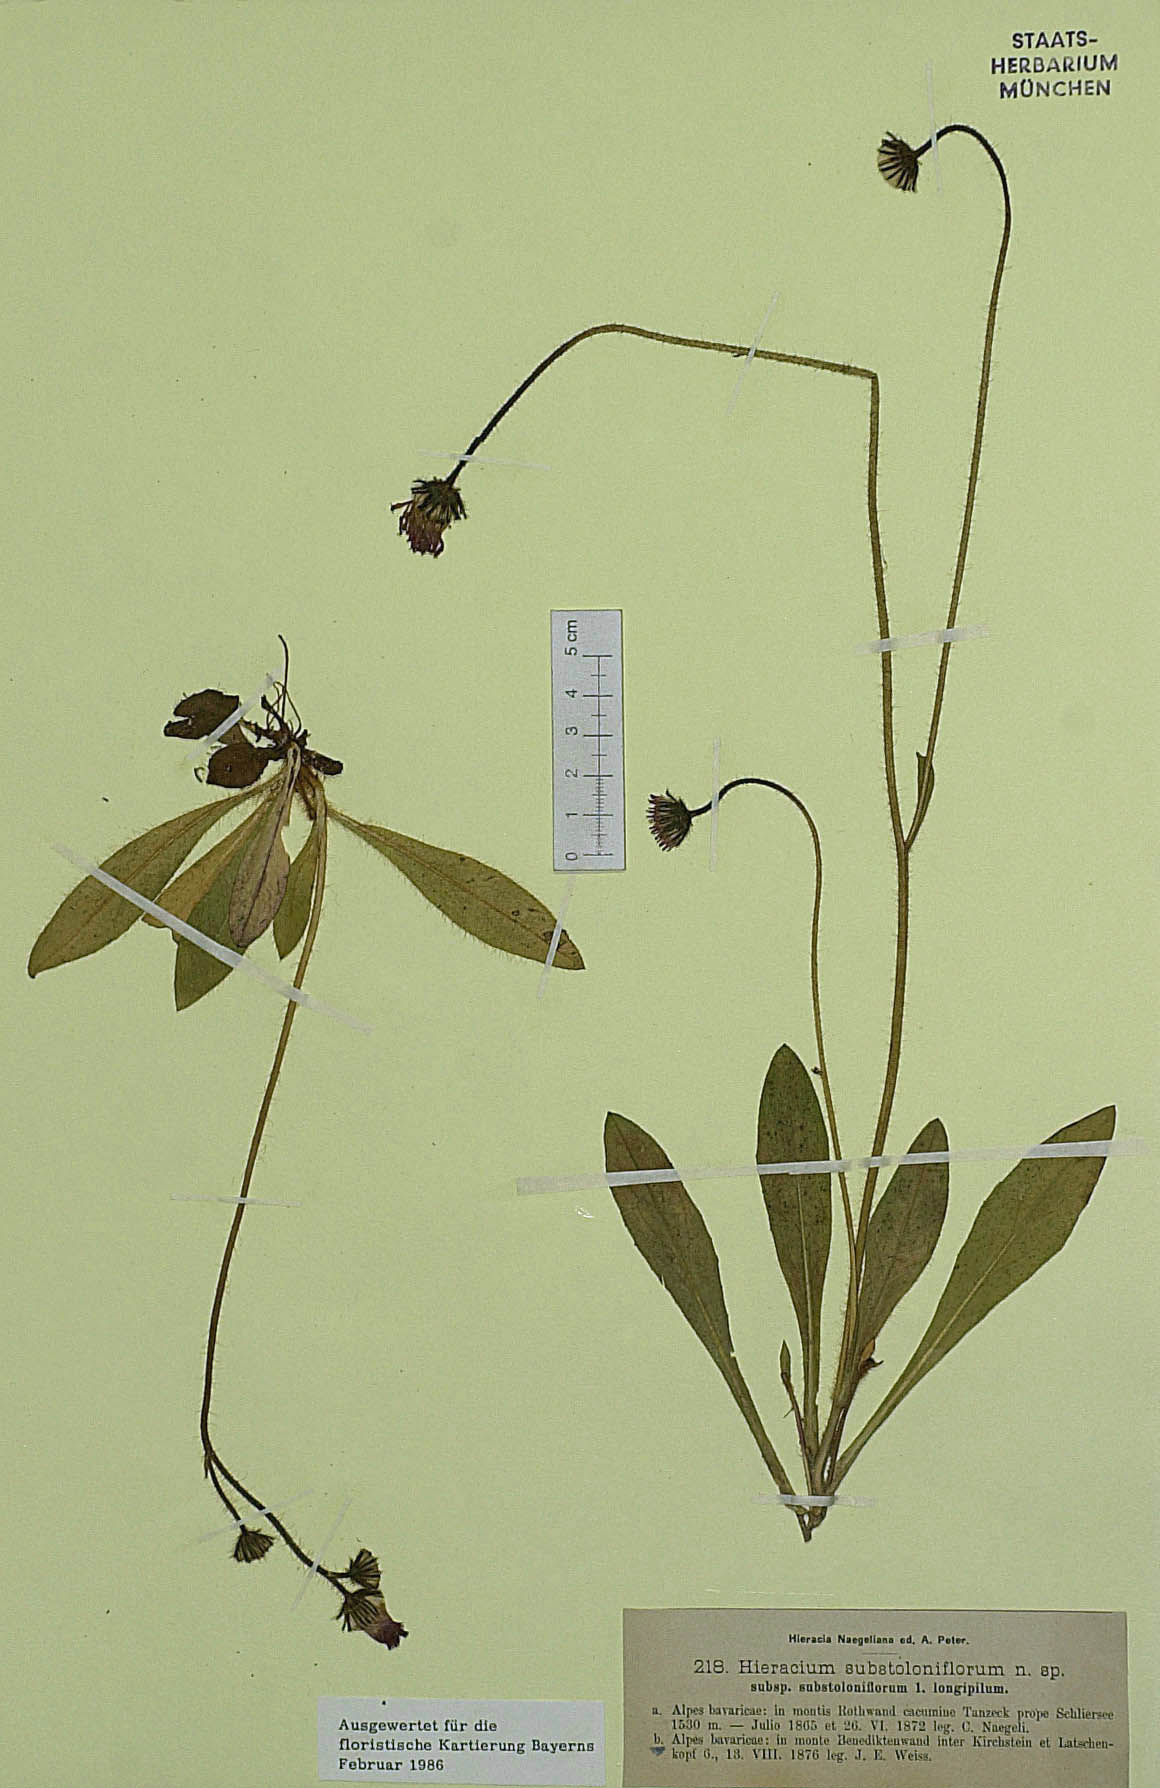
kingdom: Plantae
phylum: Tracheophyta
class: Magnoliopsida
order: Asterales
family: Asteraceae
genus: Pilosella
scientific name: Pilosella substoloniflora
